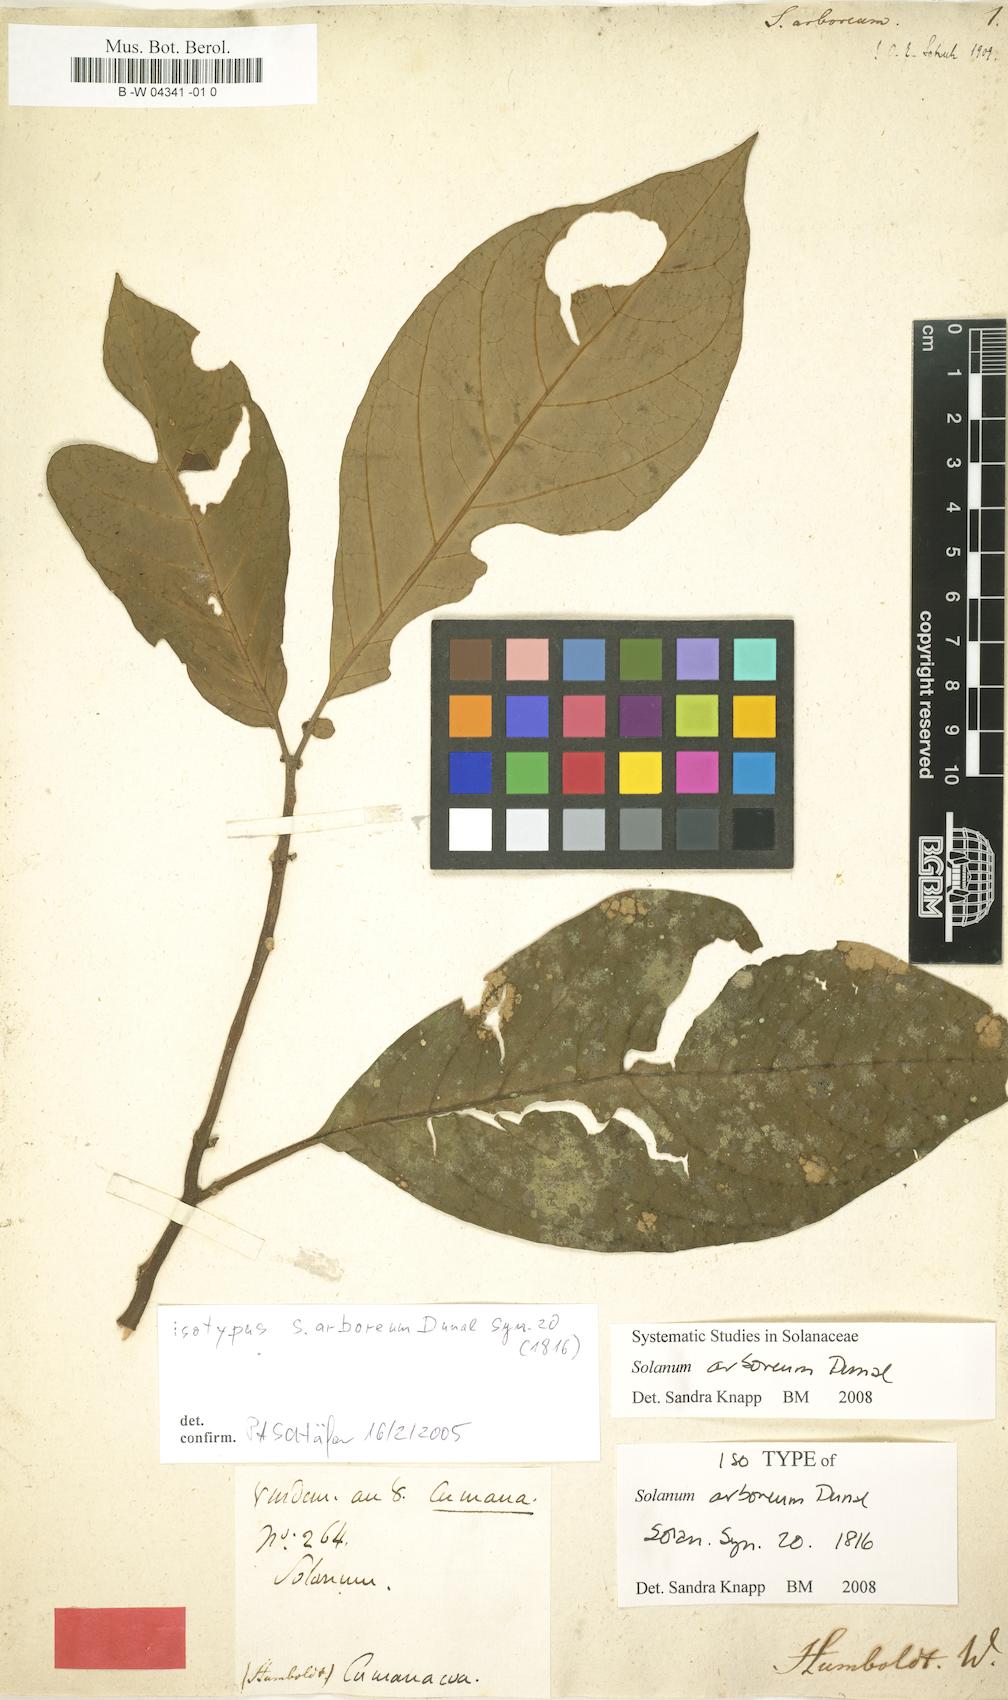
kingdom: Plantae
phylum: Tracheophyta
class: Magnoliopsida
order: Solanales
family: Solanaceae
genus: Solanum
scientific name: Solanum arboreum
